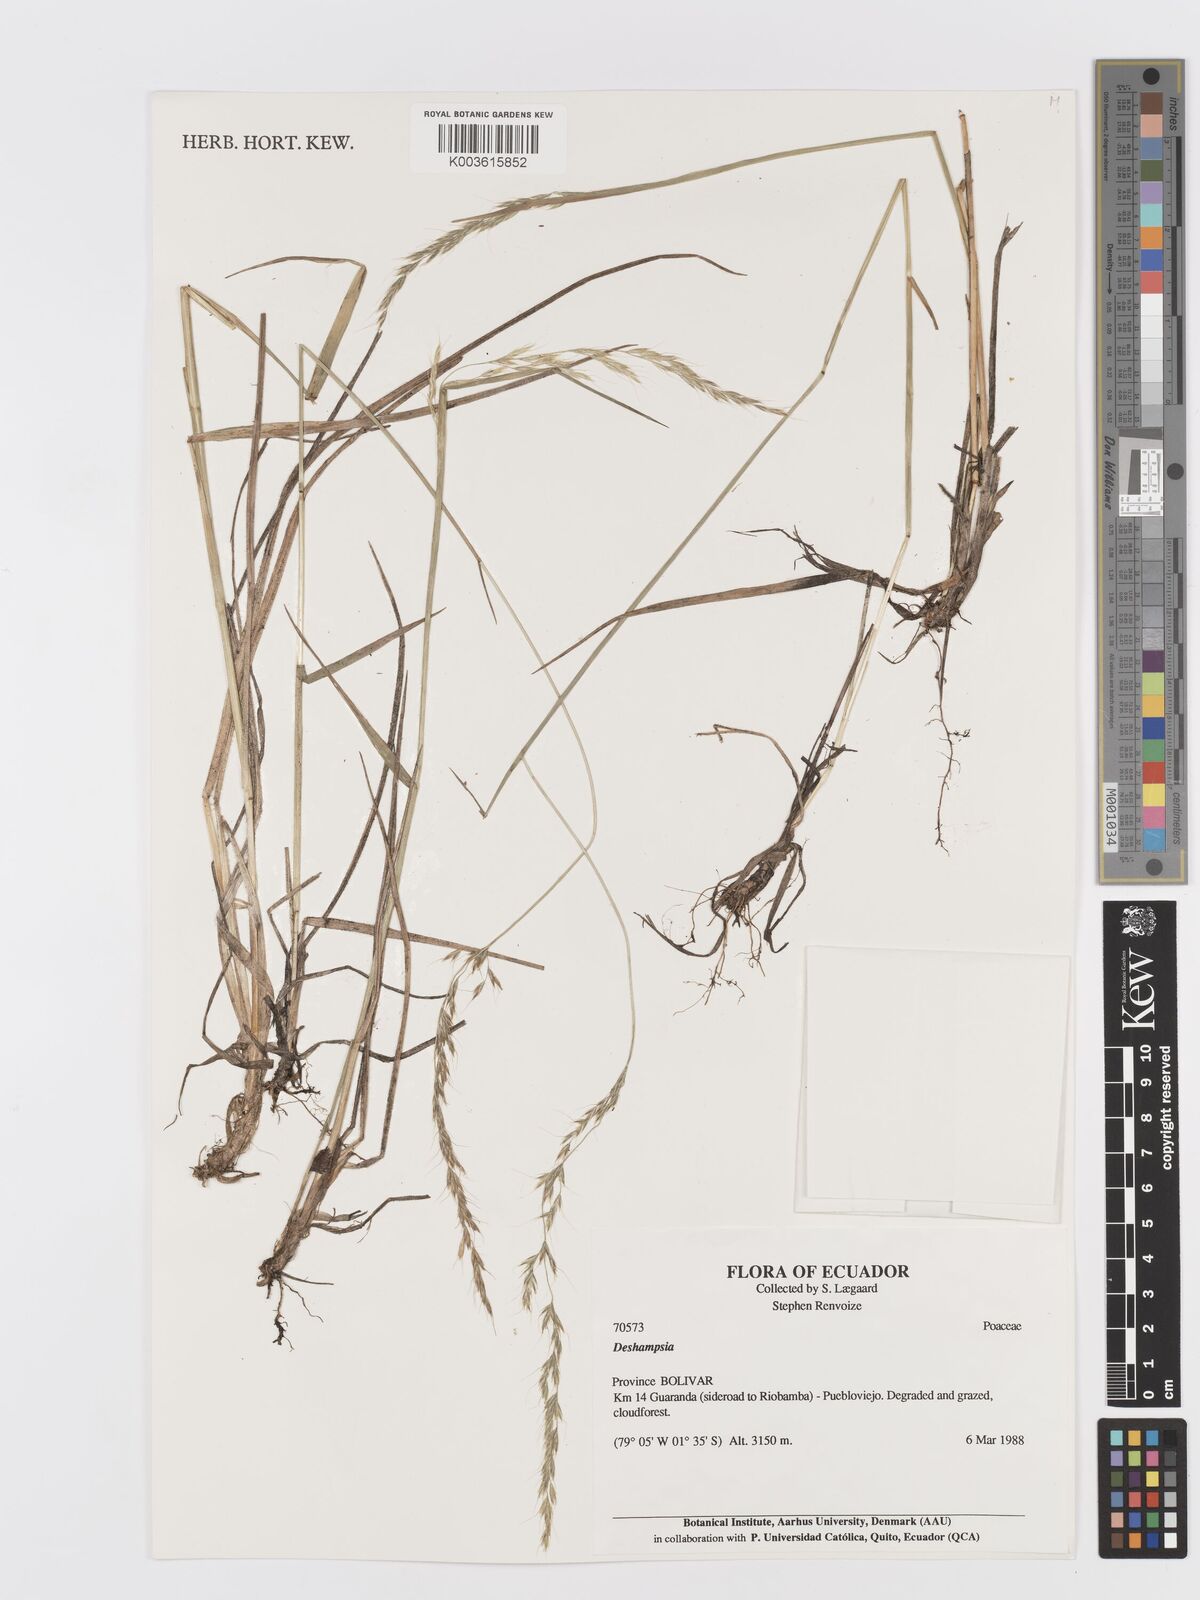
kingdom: Plantae
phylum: Tracheophyta
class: Liliopsida
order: Poales
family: Poaceae
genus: Peyritschia
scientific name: Peyritschia irazuensis
